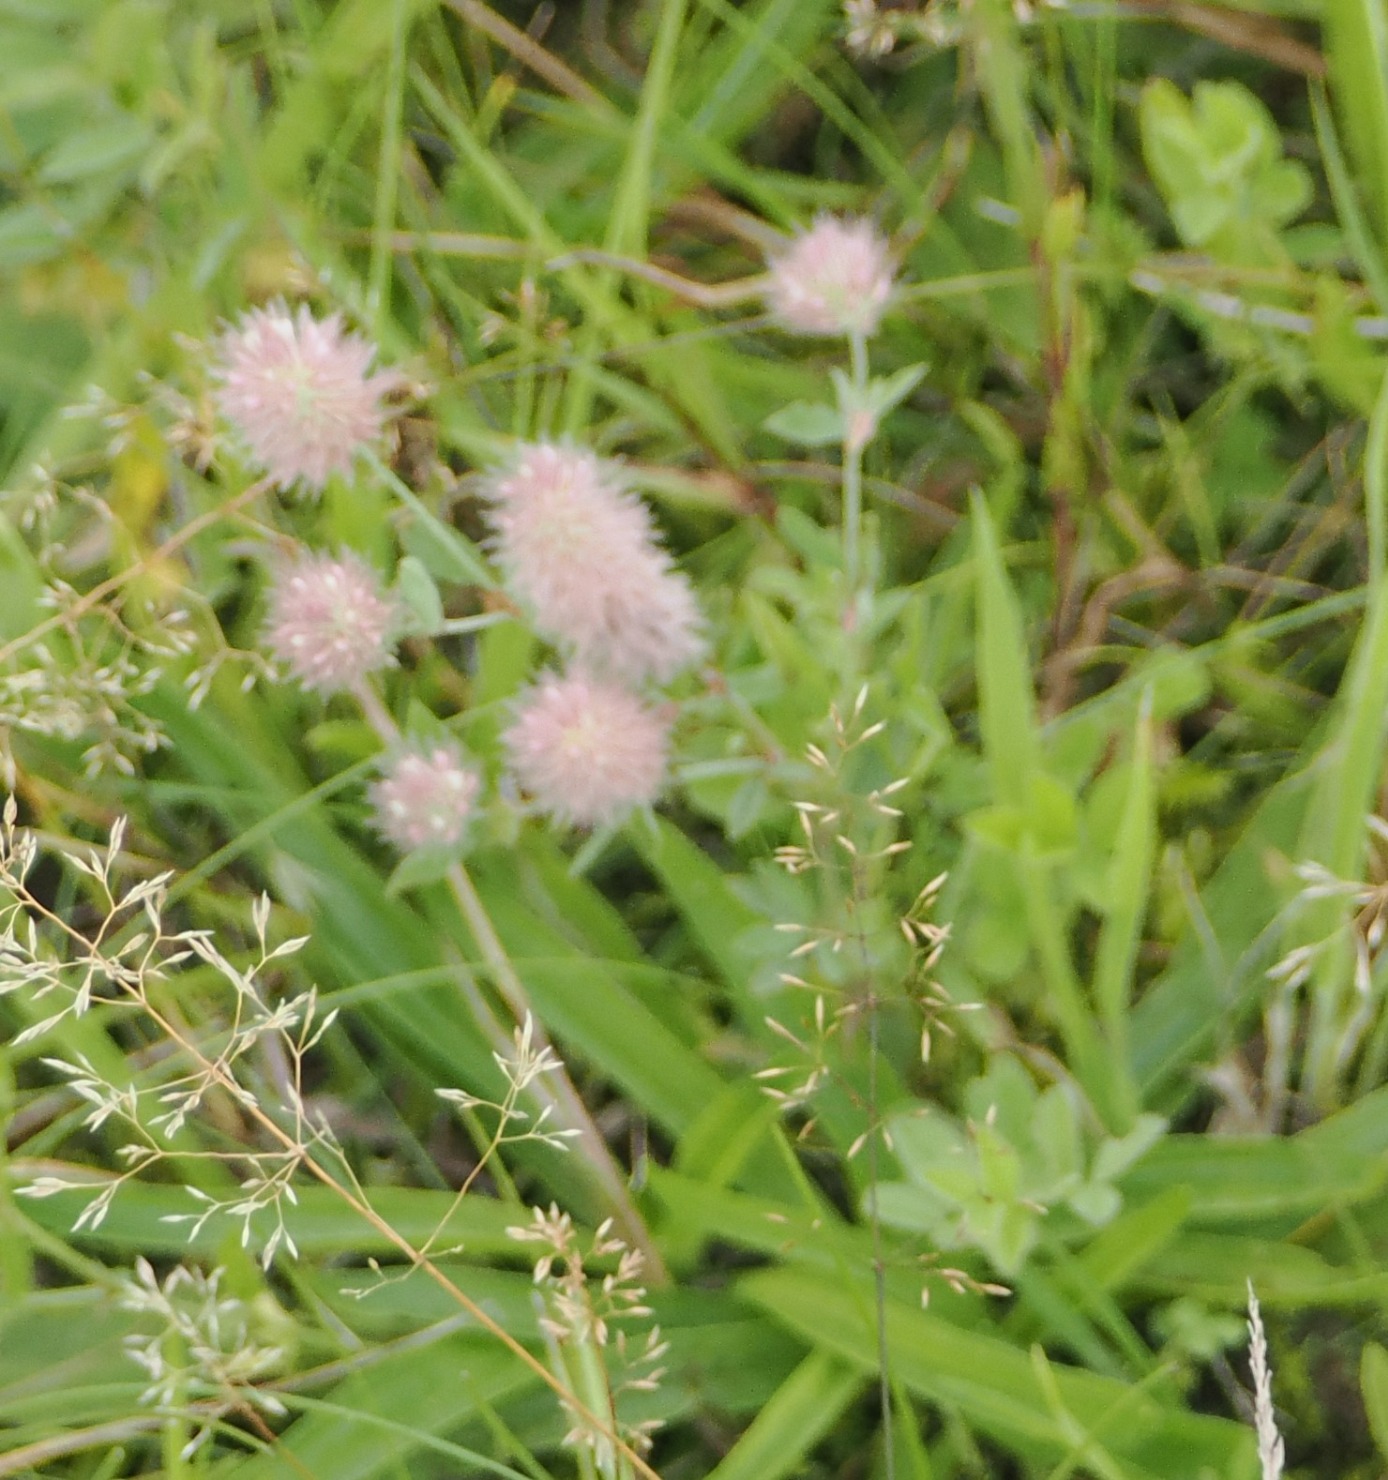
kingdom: Plantae
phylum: Tracheophyta
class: Magnoliopsida
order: Fabales
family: Fabaceae
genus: Trifolium
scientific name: Trifolium arvense
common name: Hare-kløver
